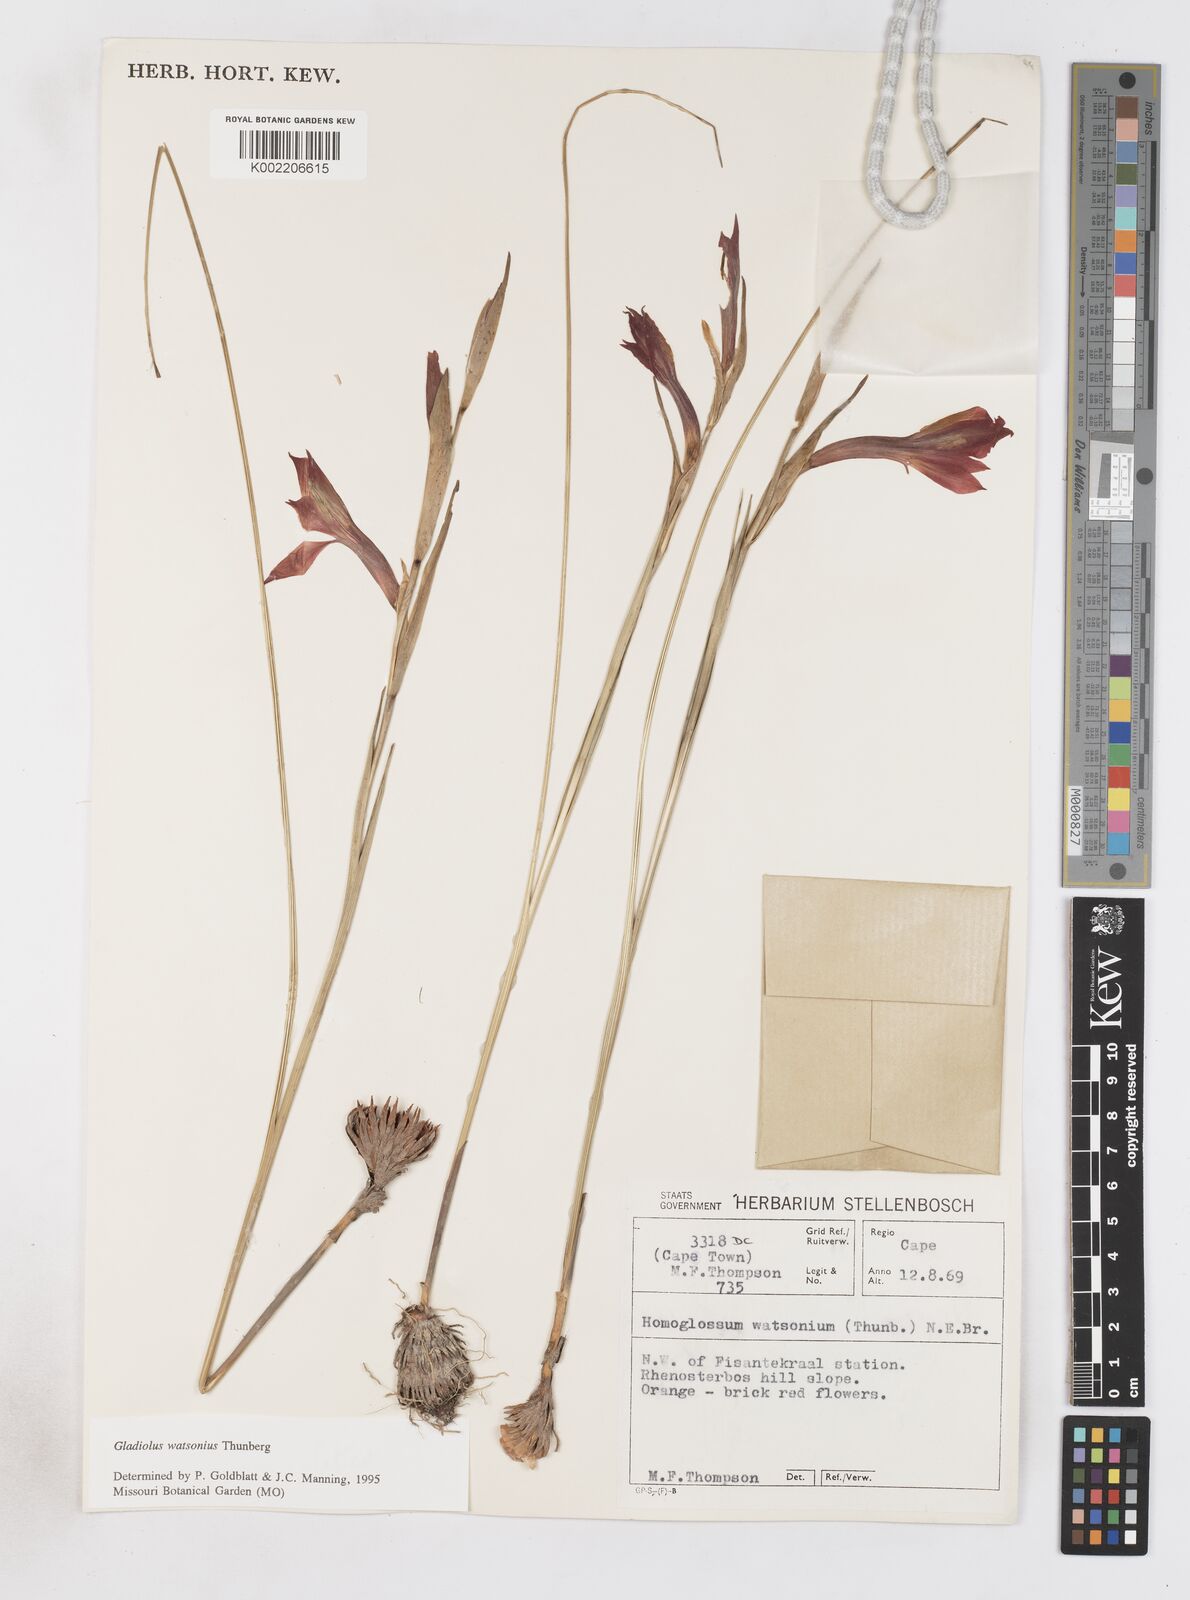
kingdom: Plantae
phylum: Tracheophyta
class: Liliopsida
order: Asparagales
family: Iridaceae
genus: Gladiolus
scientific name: Gladiolus watsonius
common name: Red afrikaner
